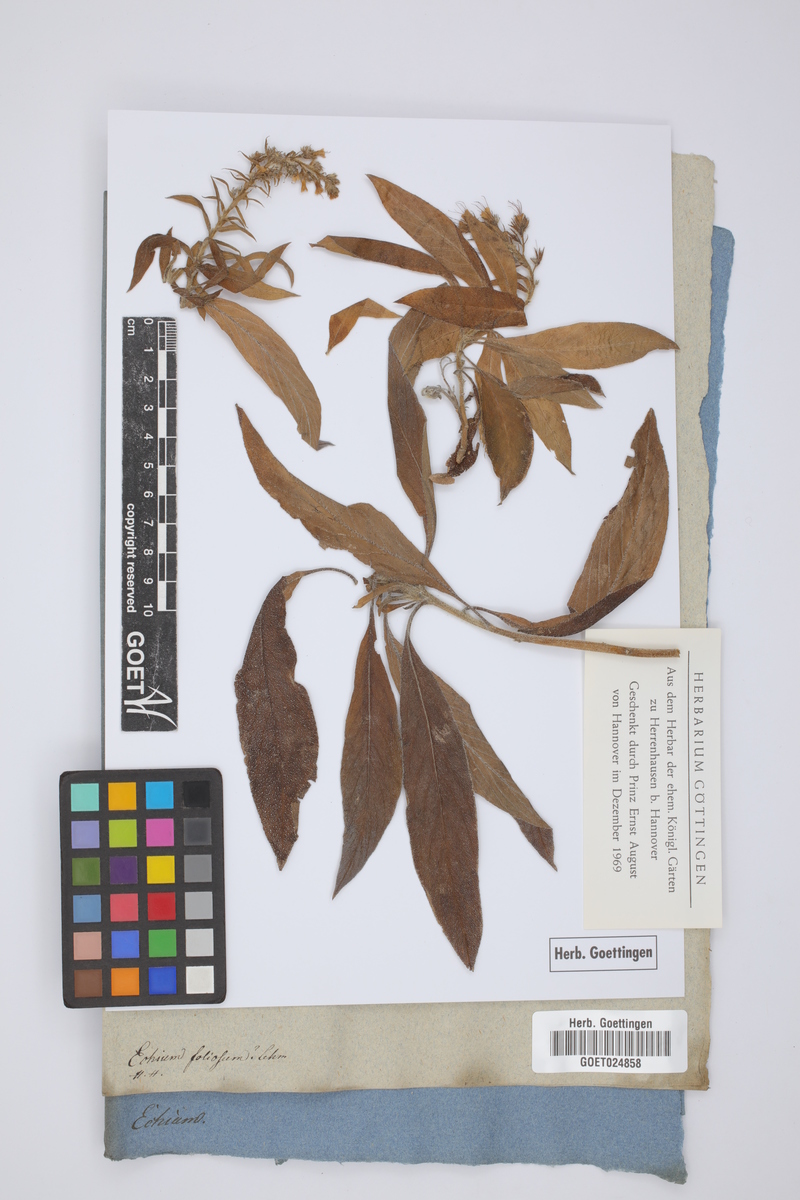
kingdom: Plantae
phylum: Tracheophyta
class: Magnoliopsida
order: Boraginales
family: Boraginaceae
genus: Echium
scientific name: Echium strictum
